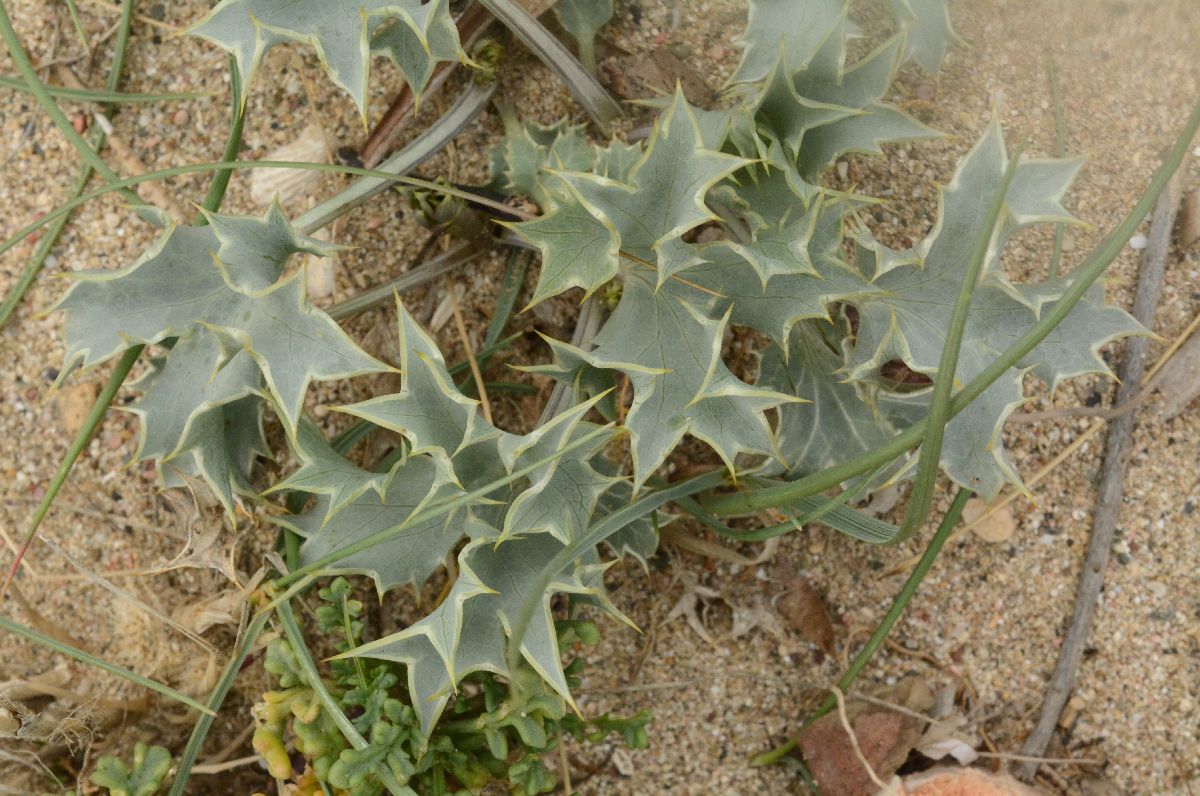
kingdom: Plantae
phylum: Tracheophyta
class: Magnoliopsida
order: Apiales
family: Apiaceae
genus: Eryngium
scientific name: Eryngium maritimum
